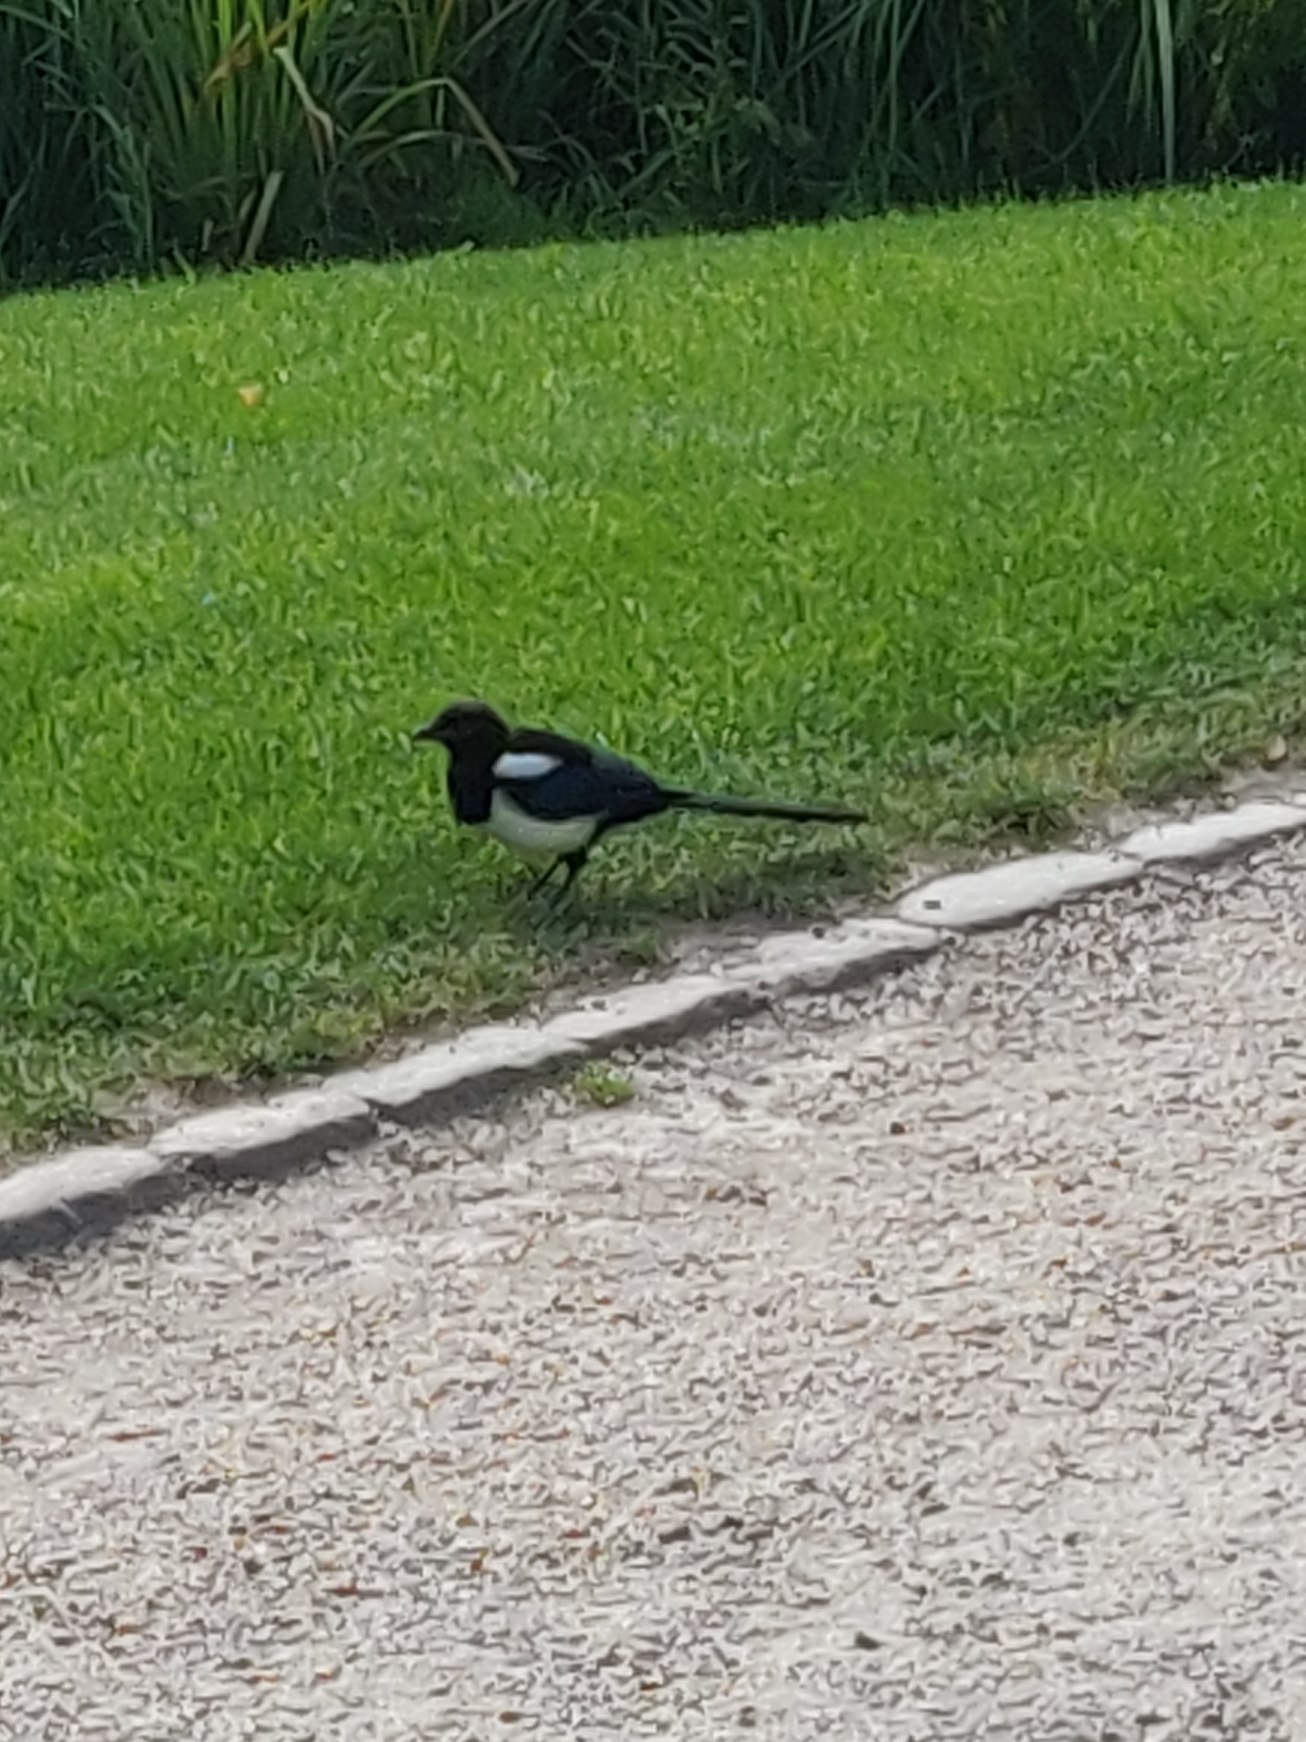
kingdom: Animalia
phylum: Chordata
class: Aves
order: Passeriformes
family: Corvidae
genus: Pica
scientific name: Pica pica
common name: Husskade
